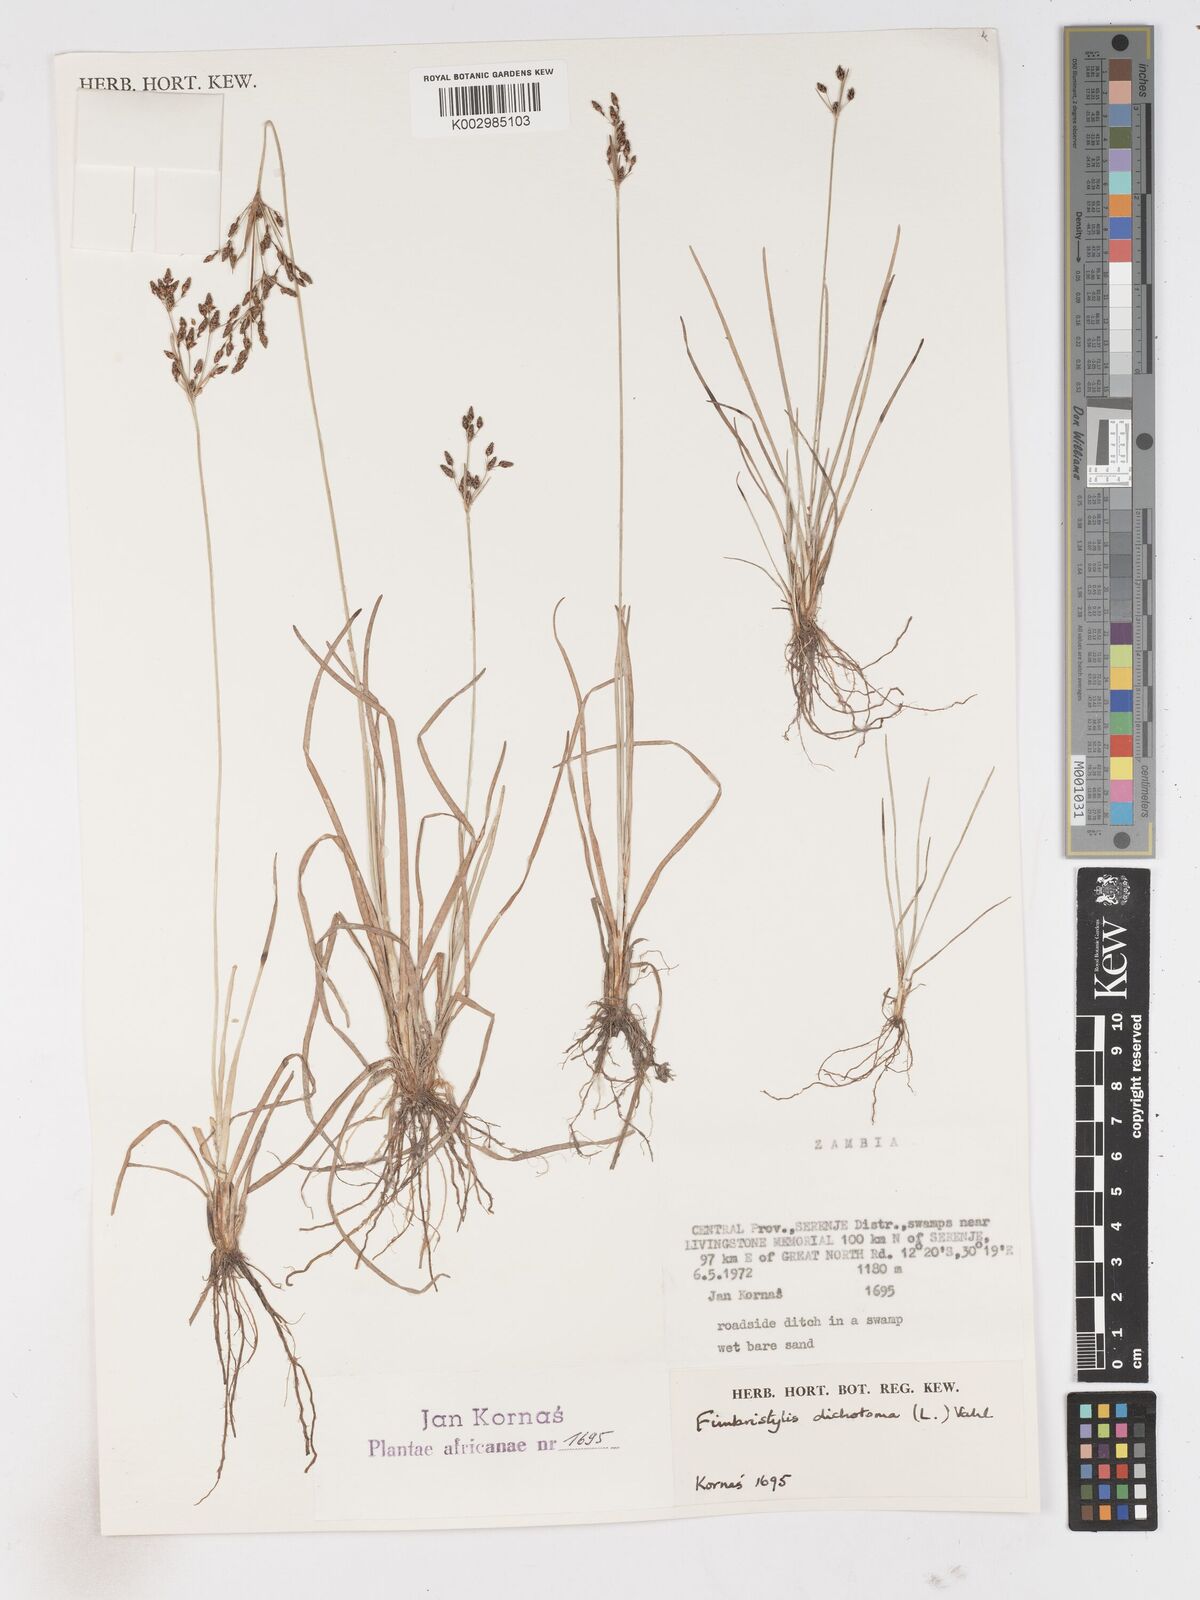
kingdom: Plantae
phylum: Tracheophyta
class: Liliopsida
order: Poales
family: Cyperaceae
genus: Fimbristylis
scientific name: Fimbristylis dichotoma
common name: Forked fimbry
